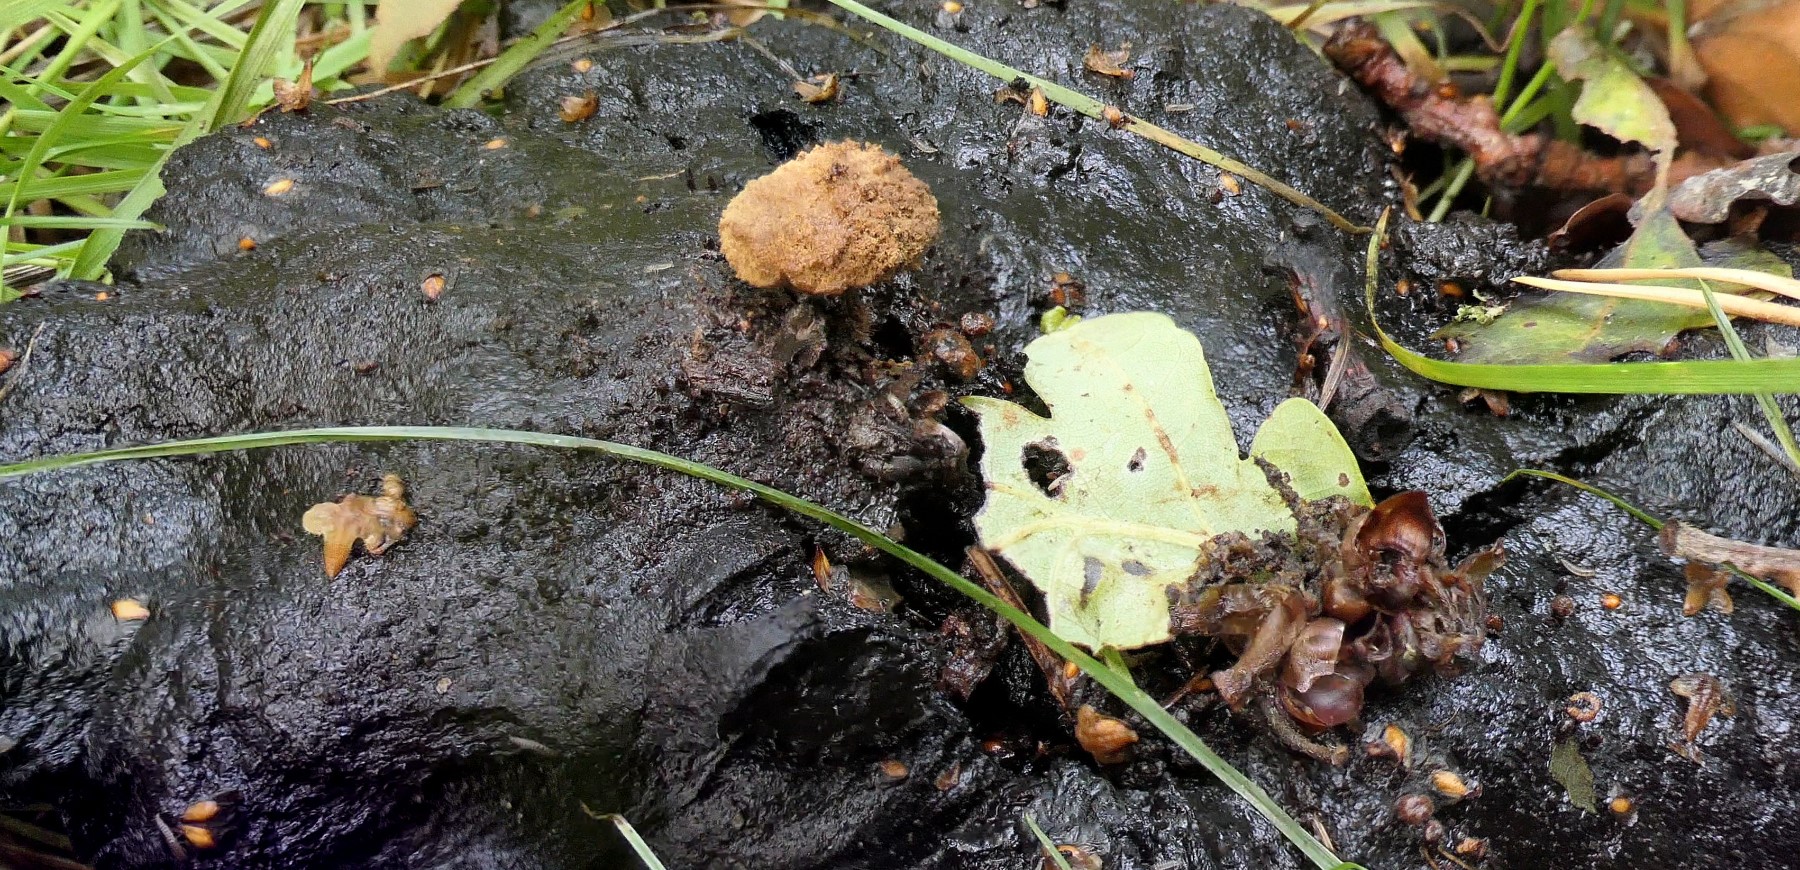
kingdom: Fungi
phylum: Basidiomycota
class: Agaricomycetes
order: Agaricales
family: Lyophyllaceae
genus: Asterophora
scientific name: Asterophora lycoperdoides
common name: brunpudret snyltehat
